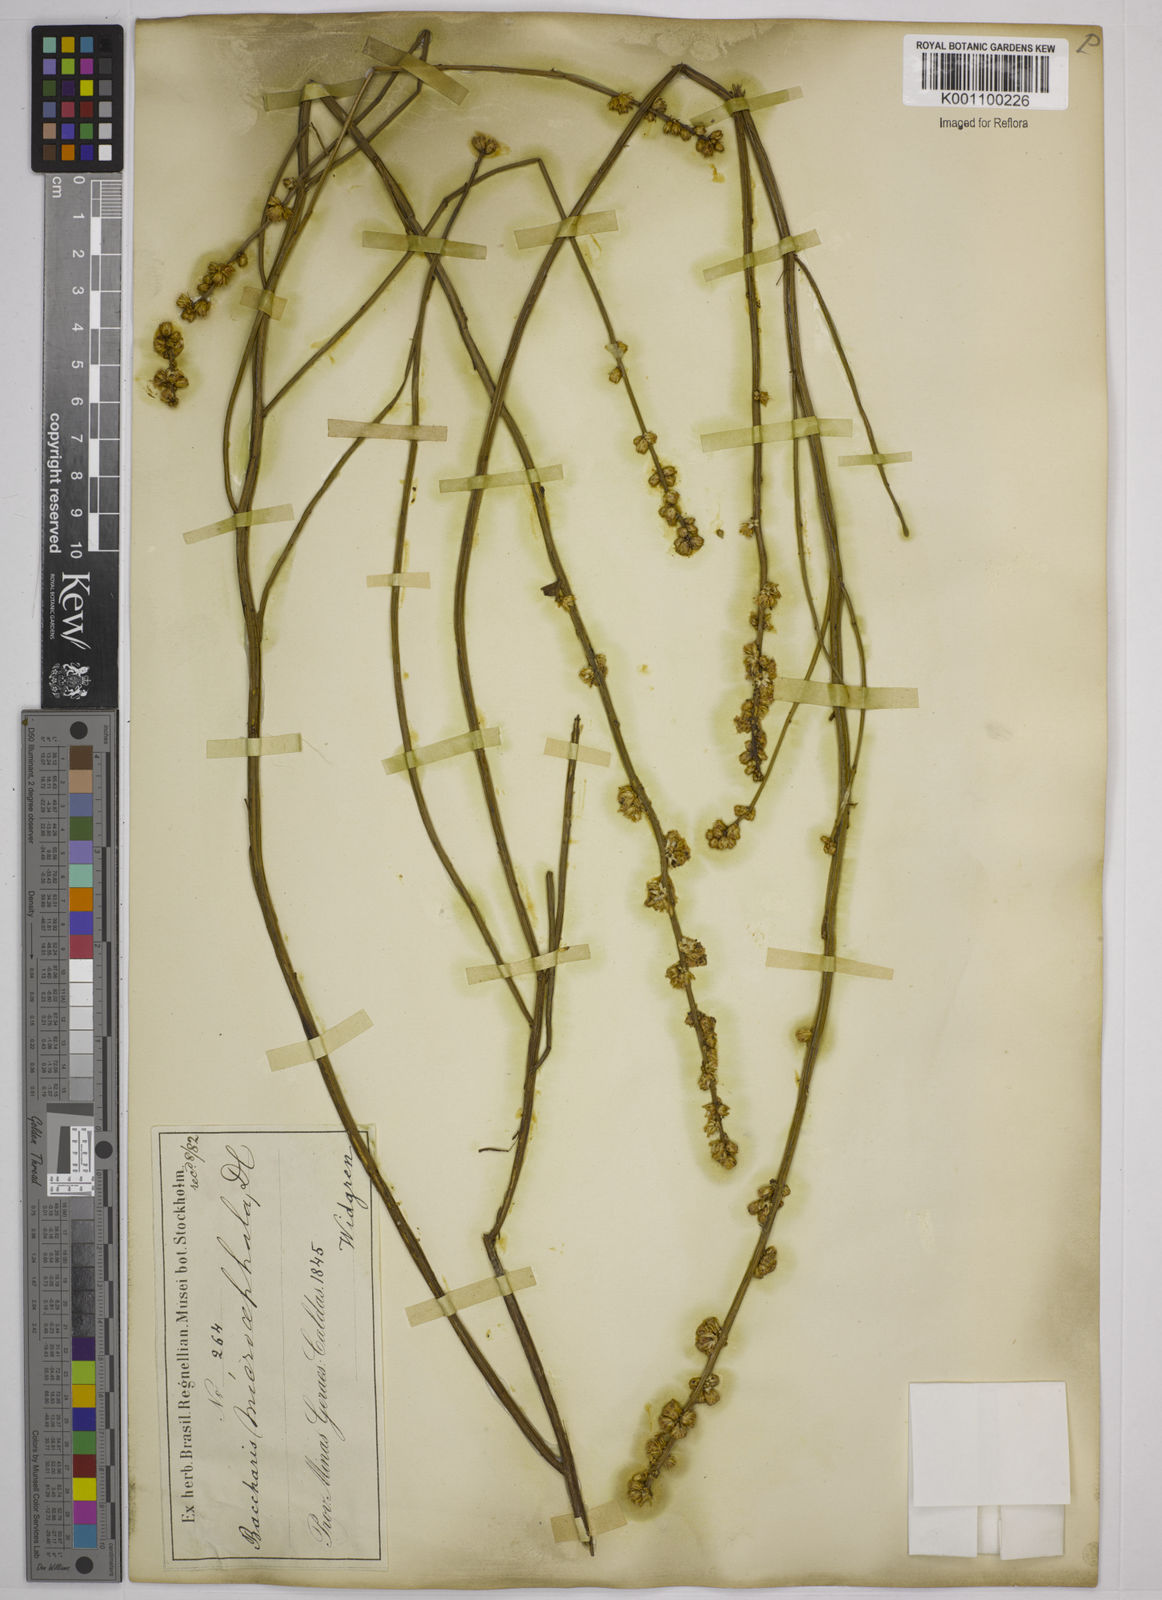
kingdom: Plantae
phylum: Tracheophyta
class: Magnoliopsida
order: Asterales
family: Asteraceae
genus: Baccharis
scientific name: Baccharis microcephala
